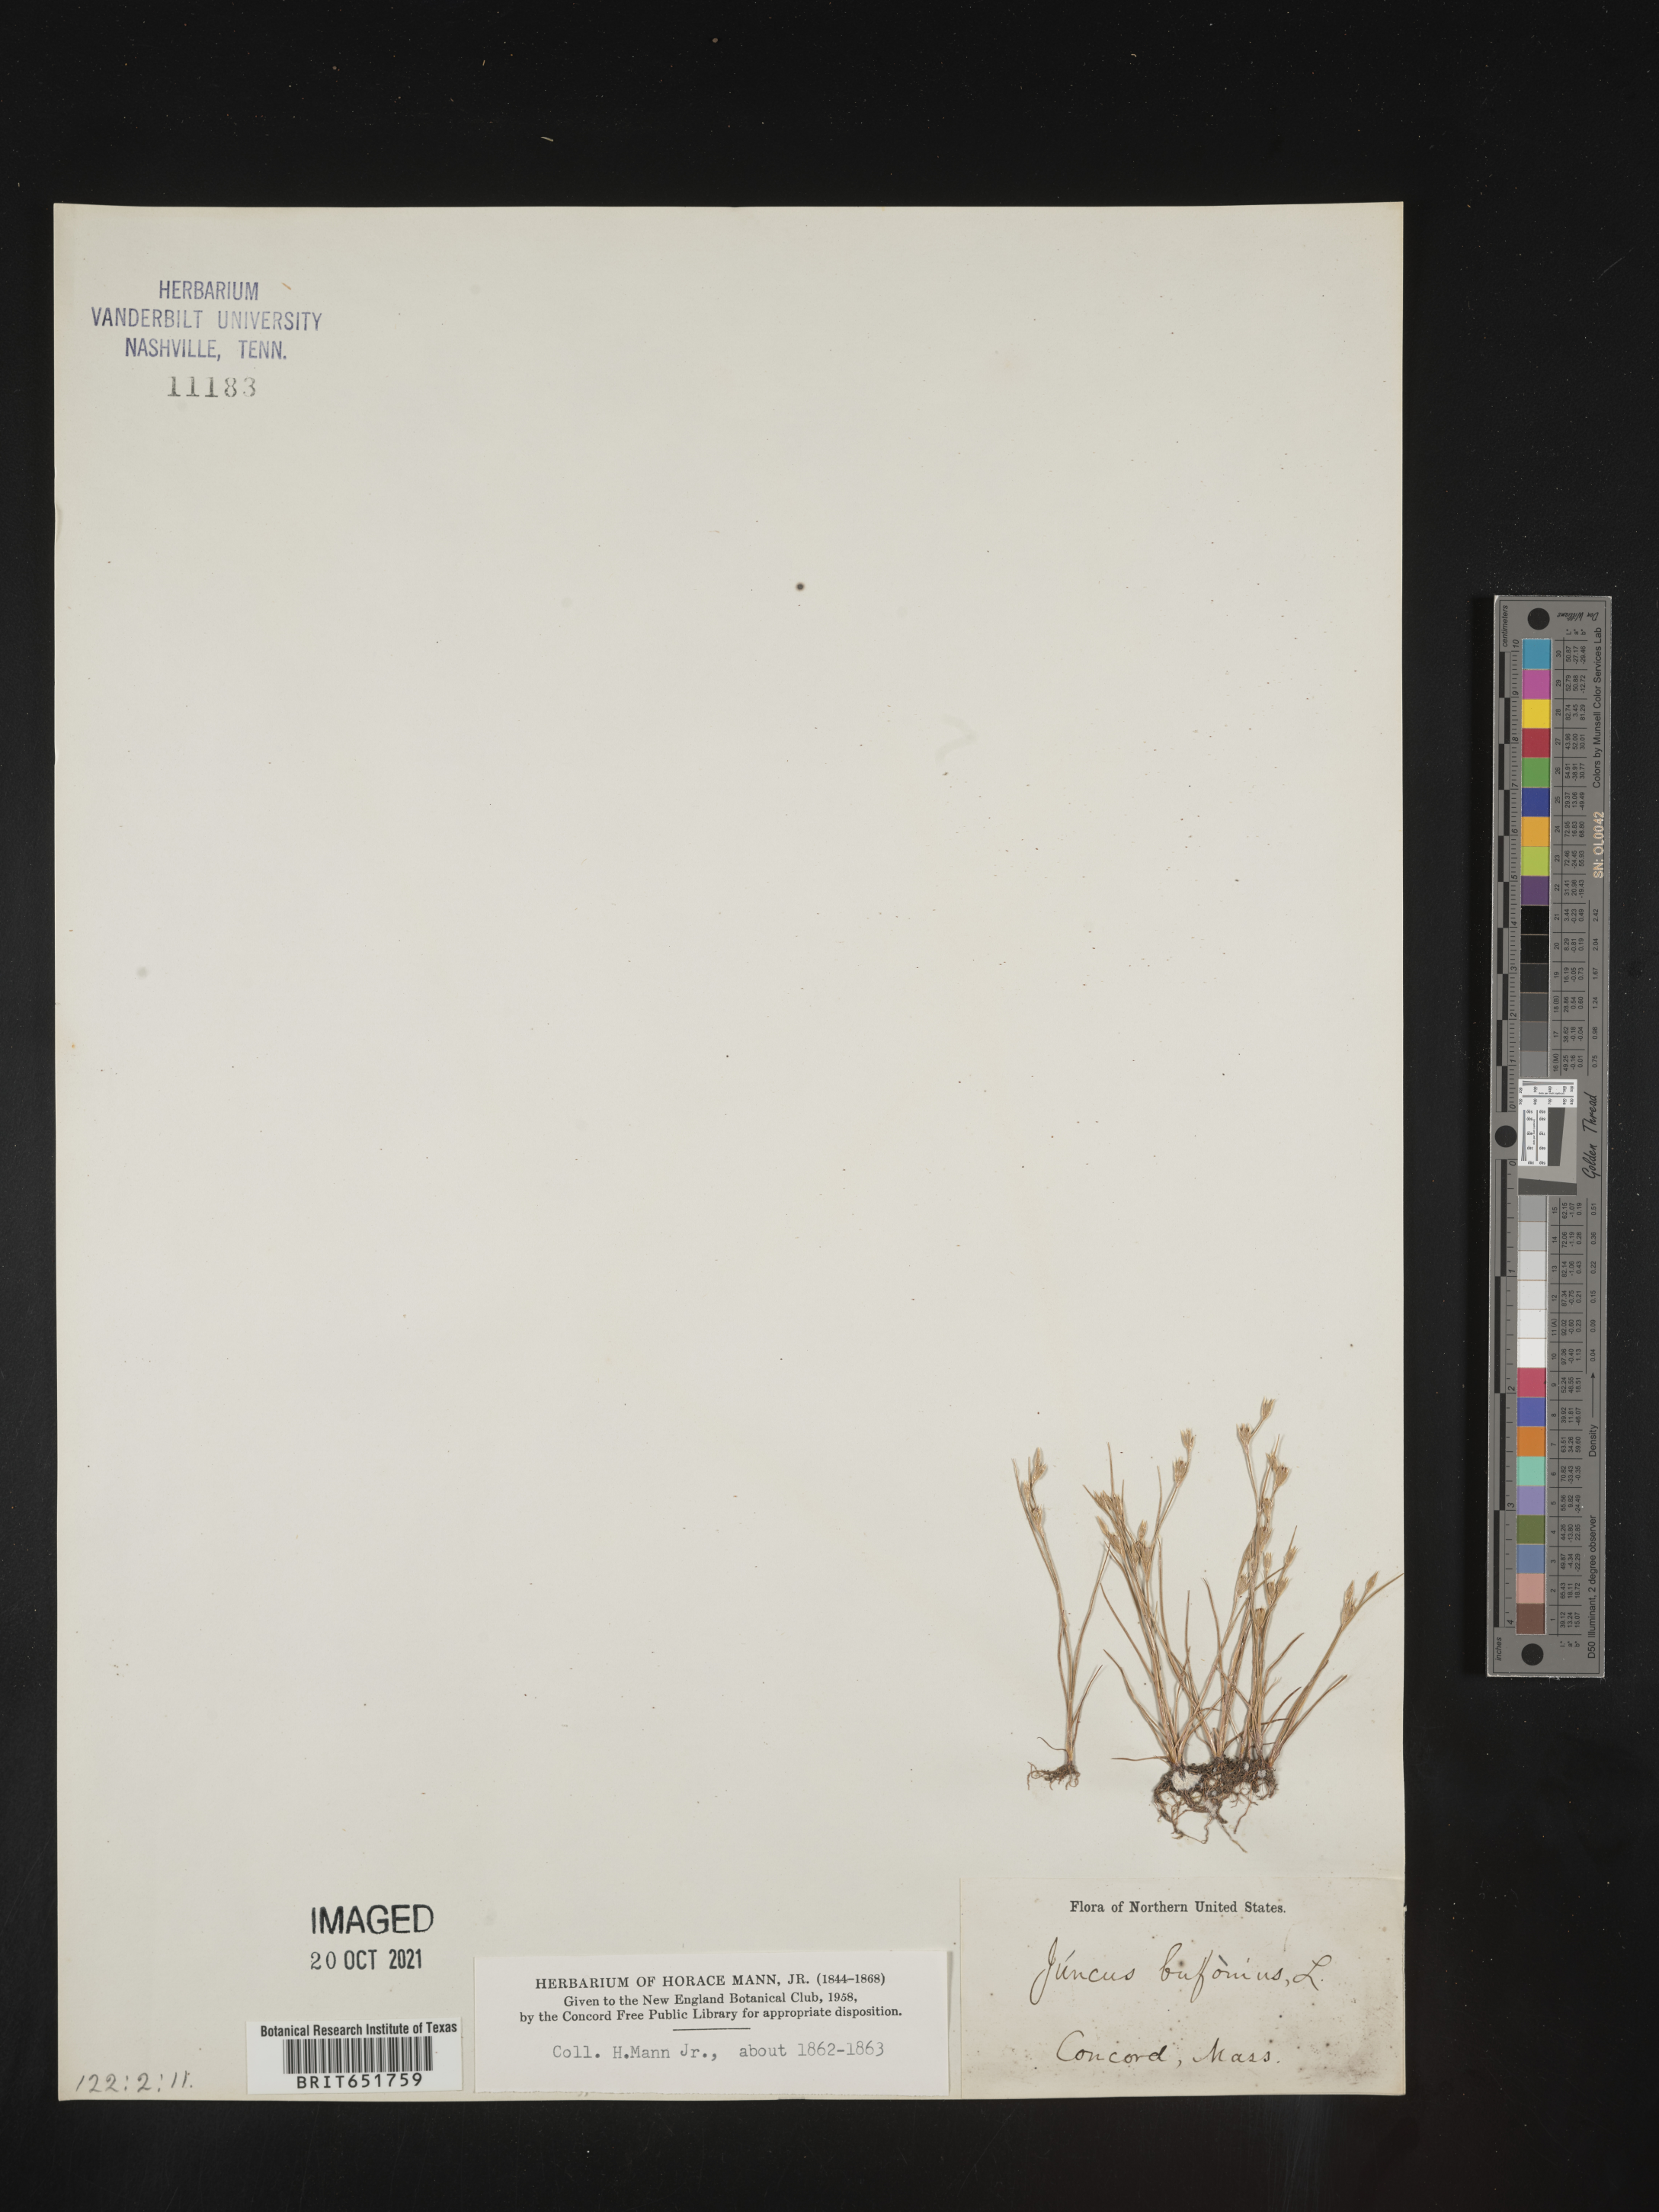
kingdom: Plantae
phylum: Tracheophyta
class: Liliopsida
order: Poales
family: Juncaceae
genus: Juncus
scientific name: Juncus bufonius
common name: Toad rush
